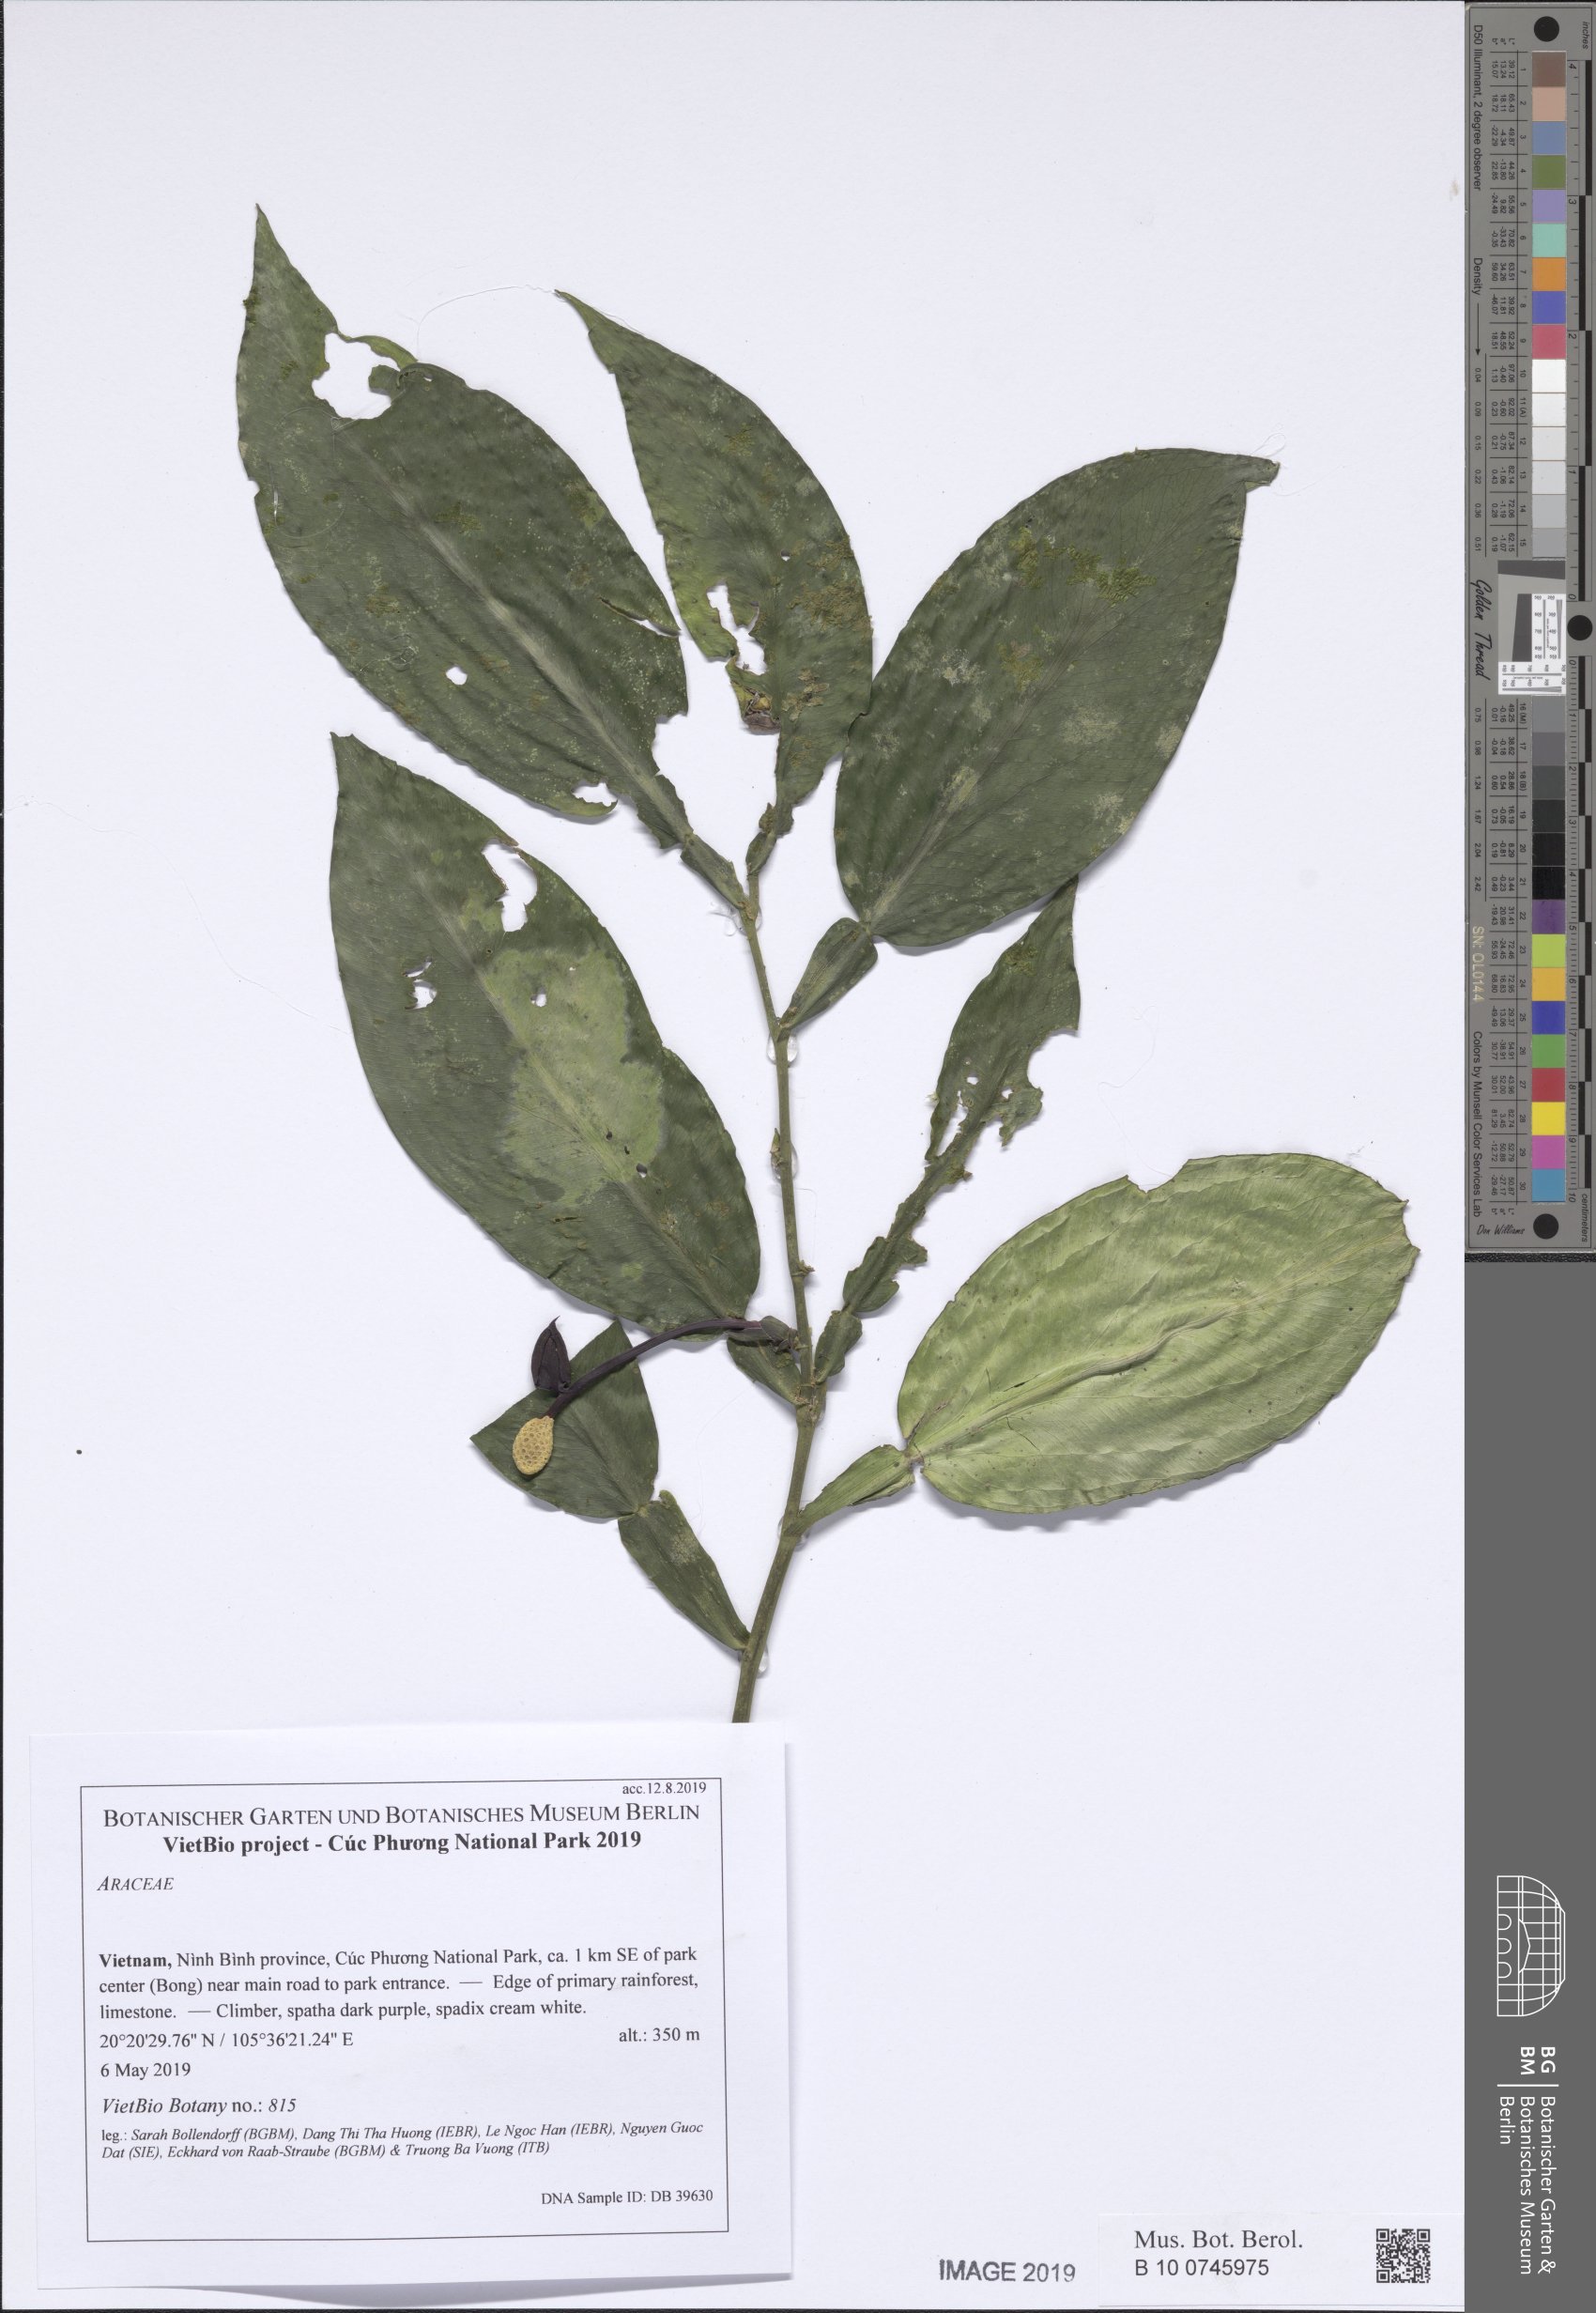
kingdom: Plantae
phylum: Tracheophyta
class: Liliopsida
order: Alismatales
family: Araceae
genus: Pothos
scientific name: Pothos dzui
